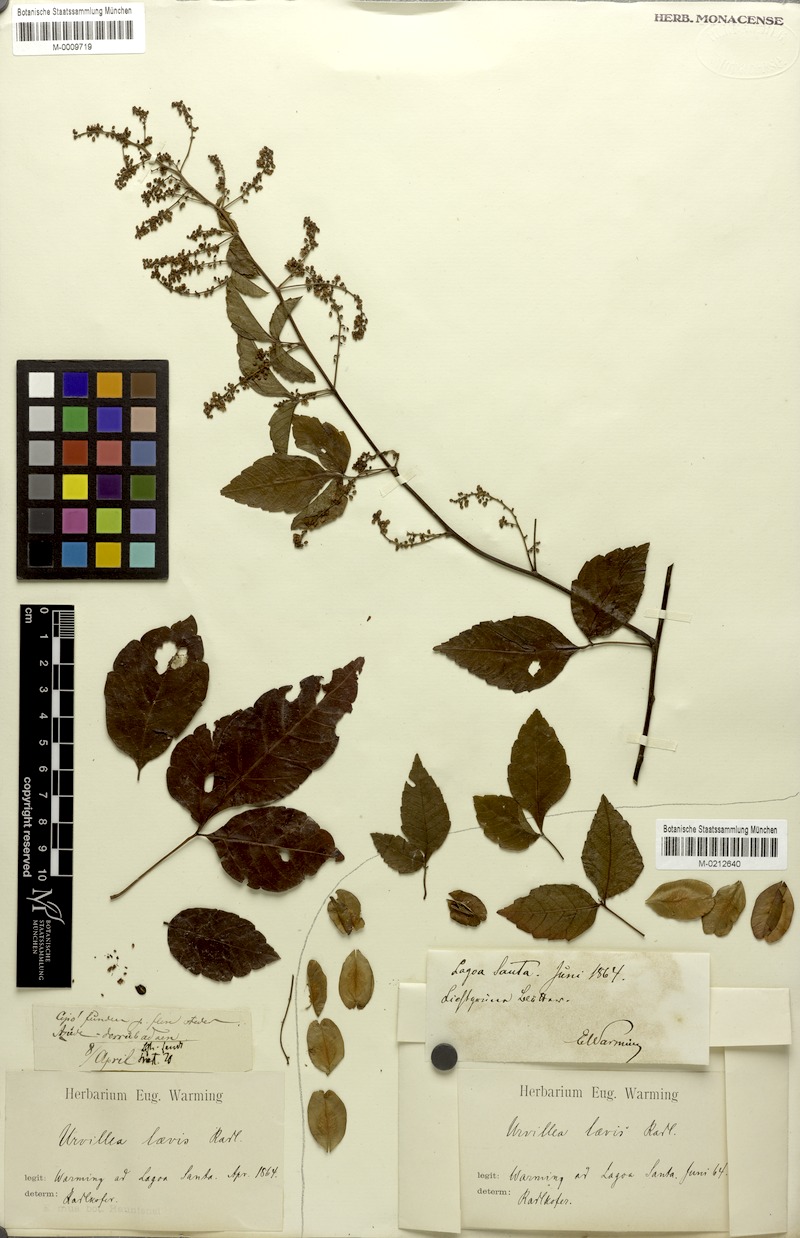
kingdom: Plantae
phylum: Tracheophyta
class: Magnoliopsida
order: Sapindales
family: Sapindaceae
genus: Urvillea
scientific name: Urvillea laevis
